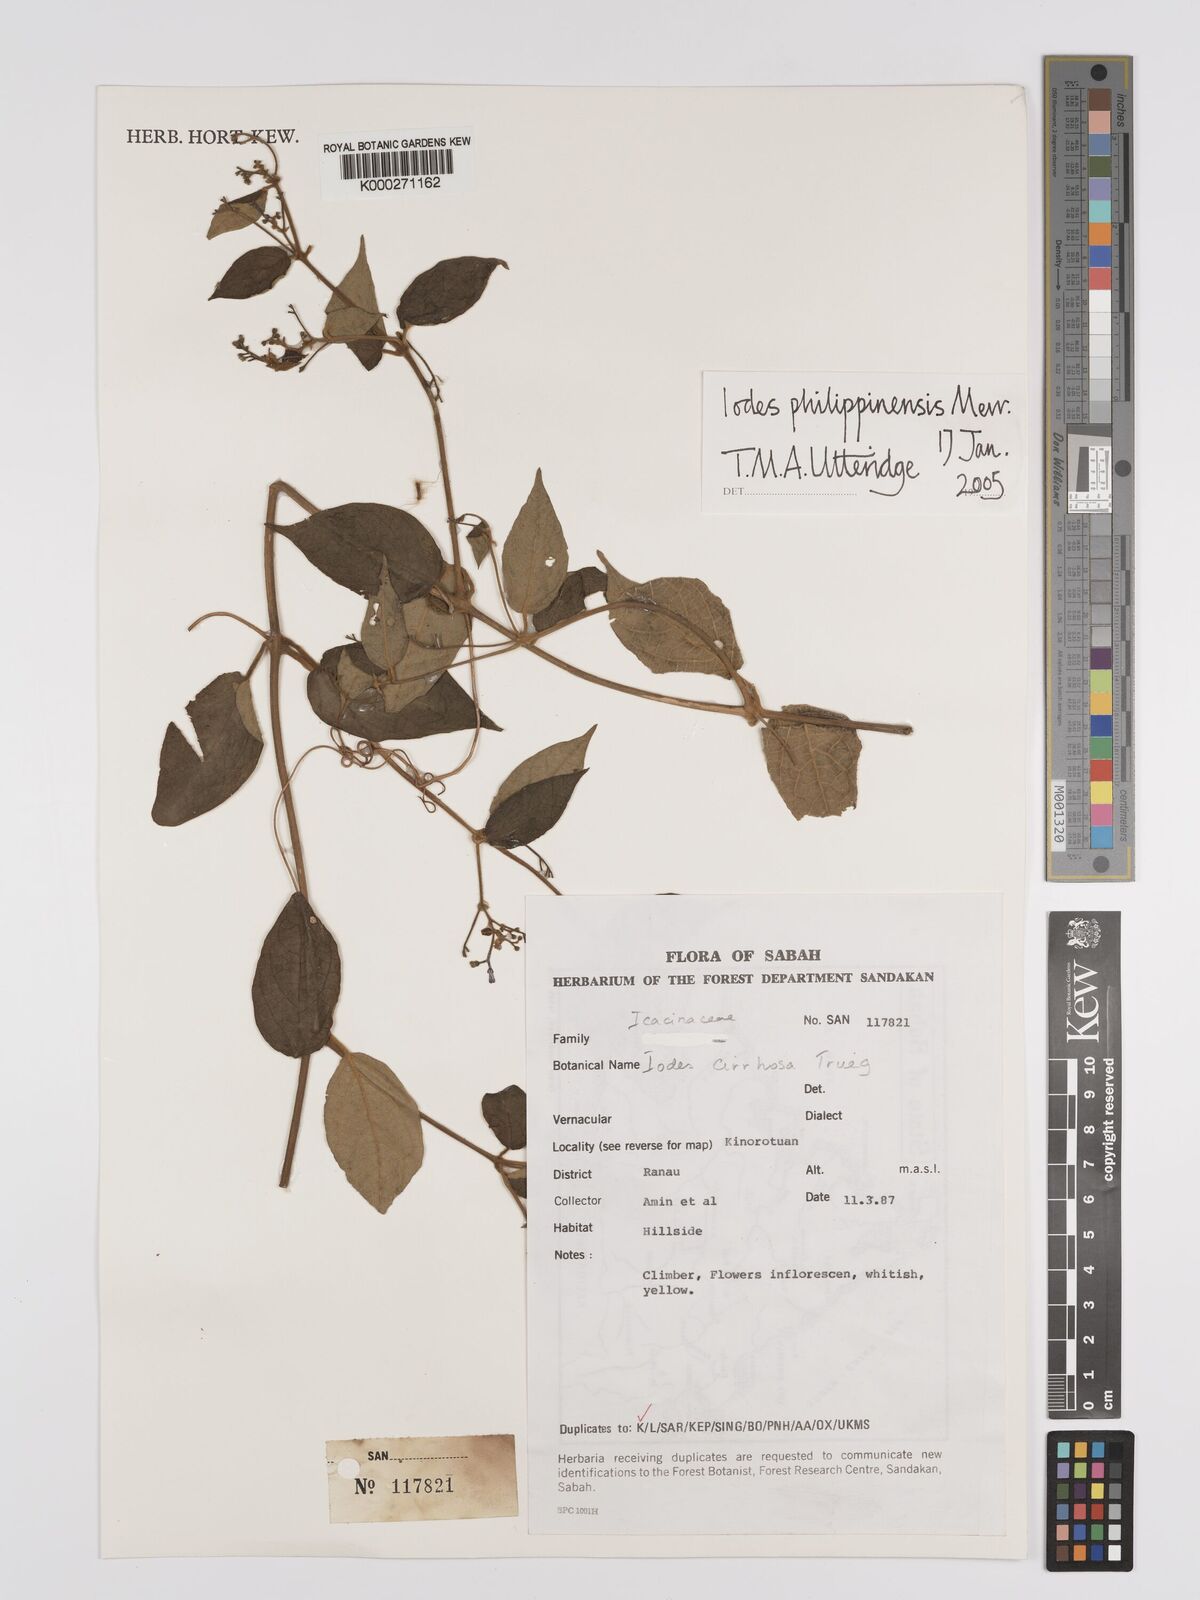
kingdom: Plantae
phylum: Tracheophyta
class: Magnoliopsida
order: Icacinales
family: Icacinaceae
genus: Iodes
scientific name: Iodes philippinensis
